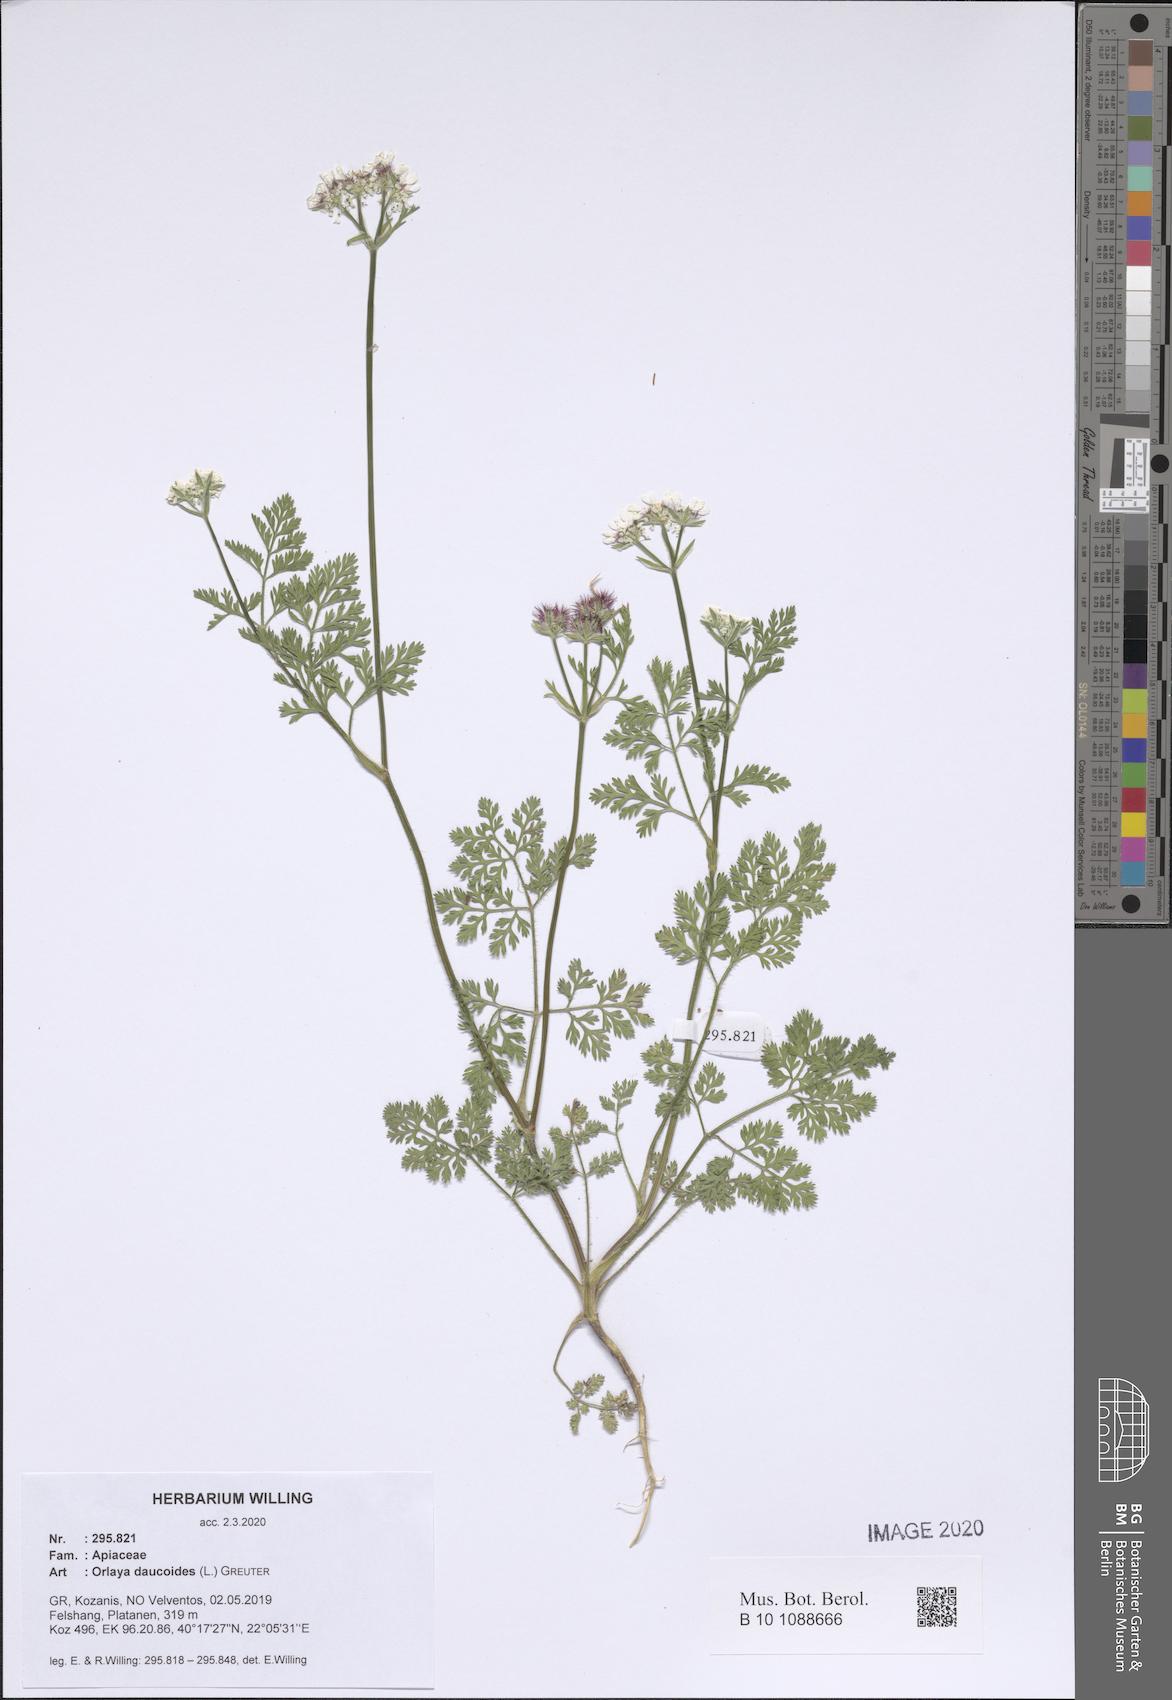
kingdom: Plantae
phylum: Tracheophyta
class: Magnoliopsida
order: Apiales
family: Apiaceae
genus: Orlaya
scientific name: Orlaya daucoides
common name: Flat-fruit orlaya
